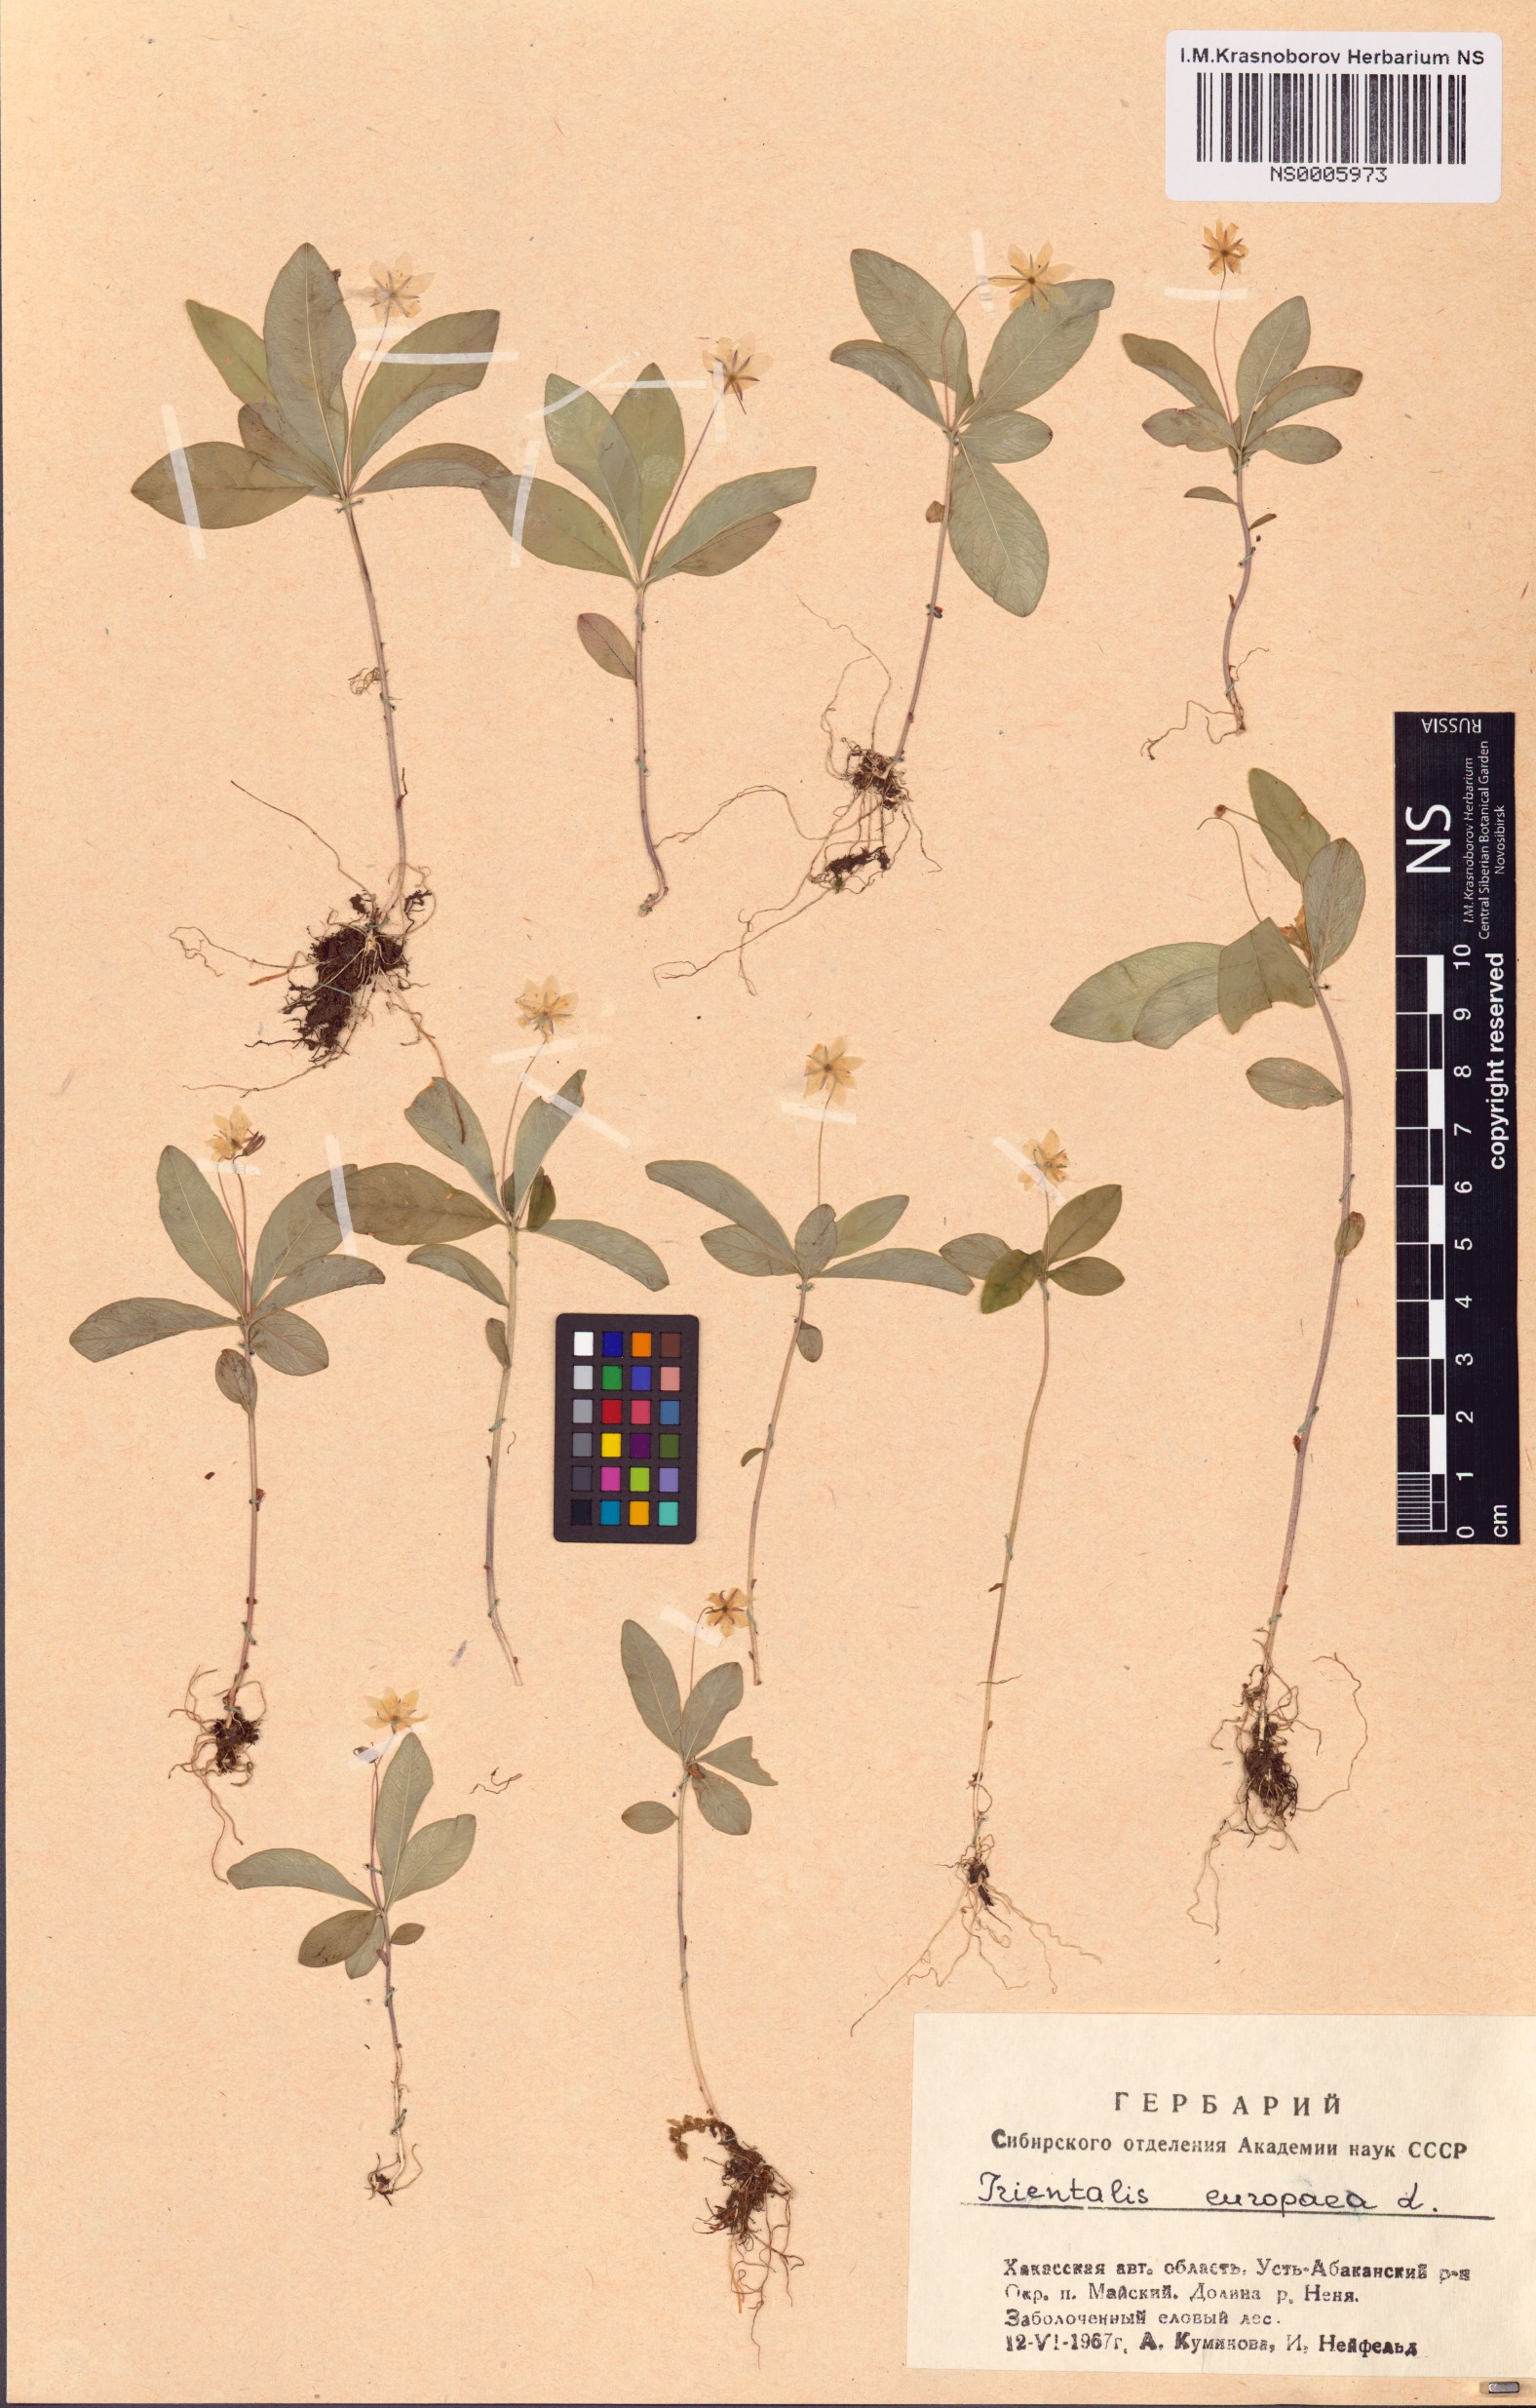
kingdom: Plantae
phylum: Tracheophyta
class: Magnoliopsida
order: Ericales
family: Primulaceae
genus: Lysimachia
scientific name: Lysimachia europaea
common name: Arctic starflower
